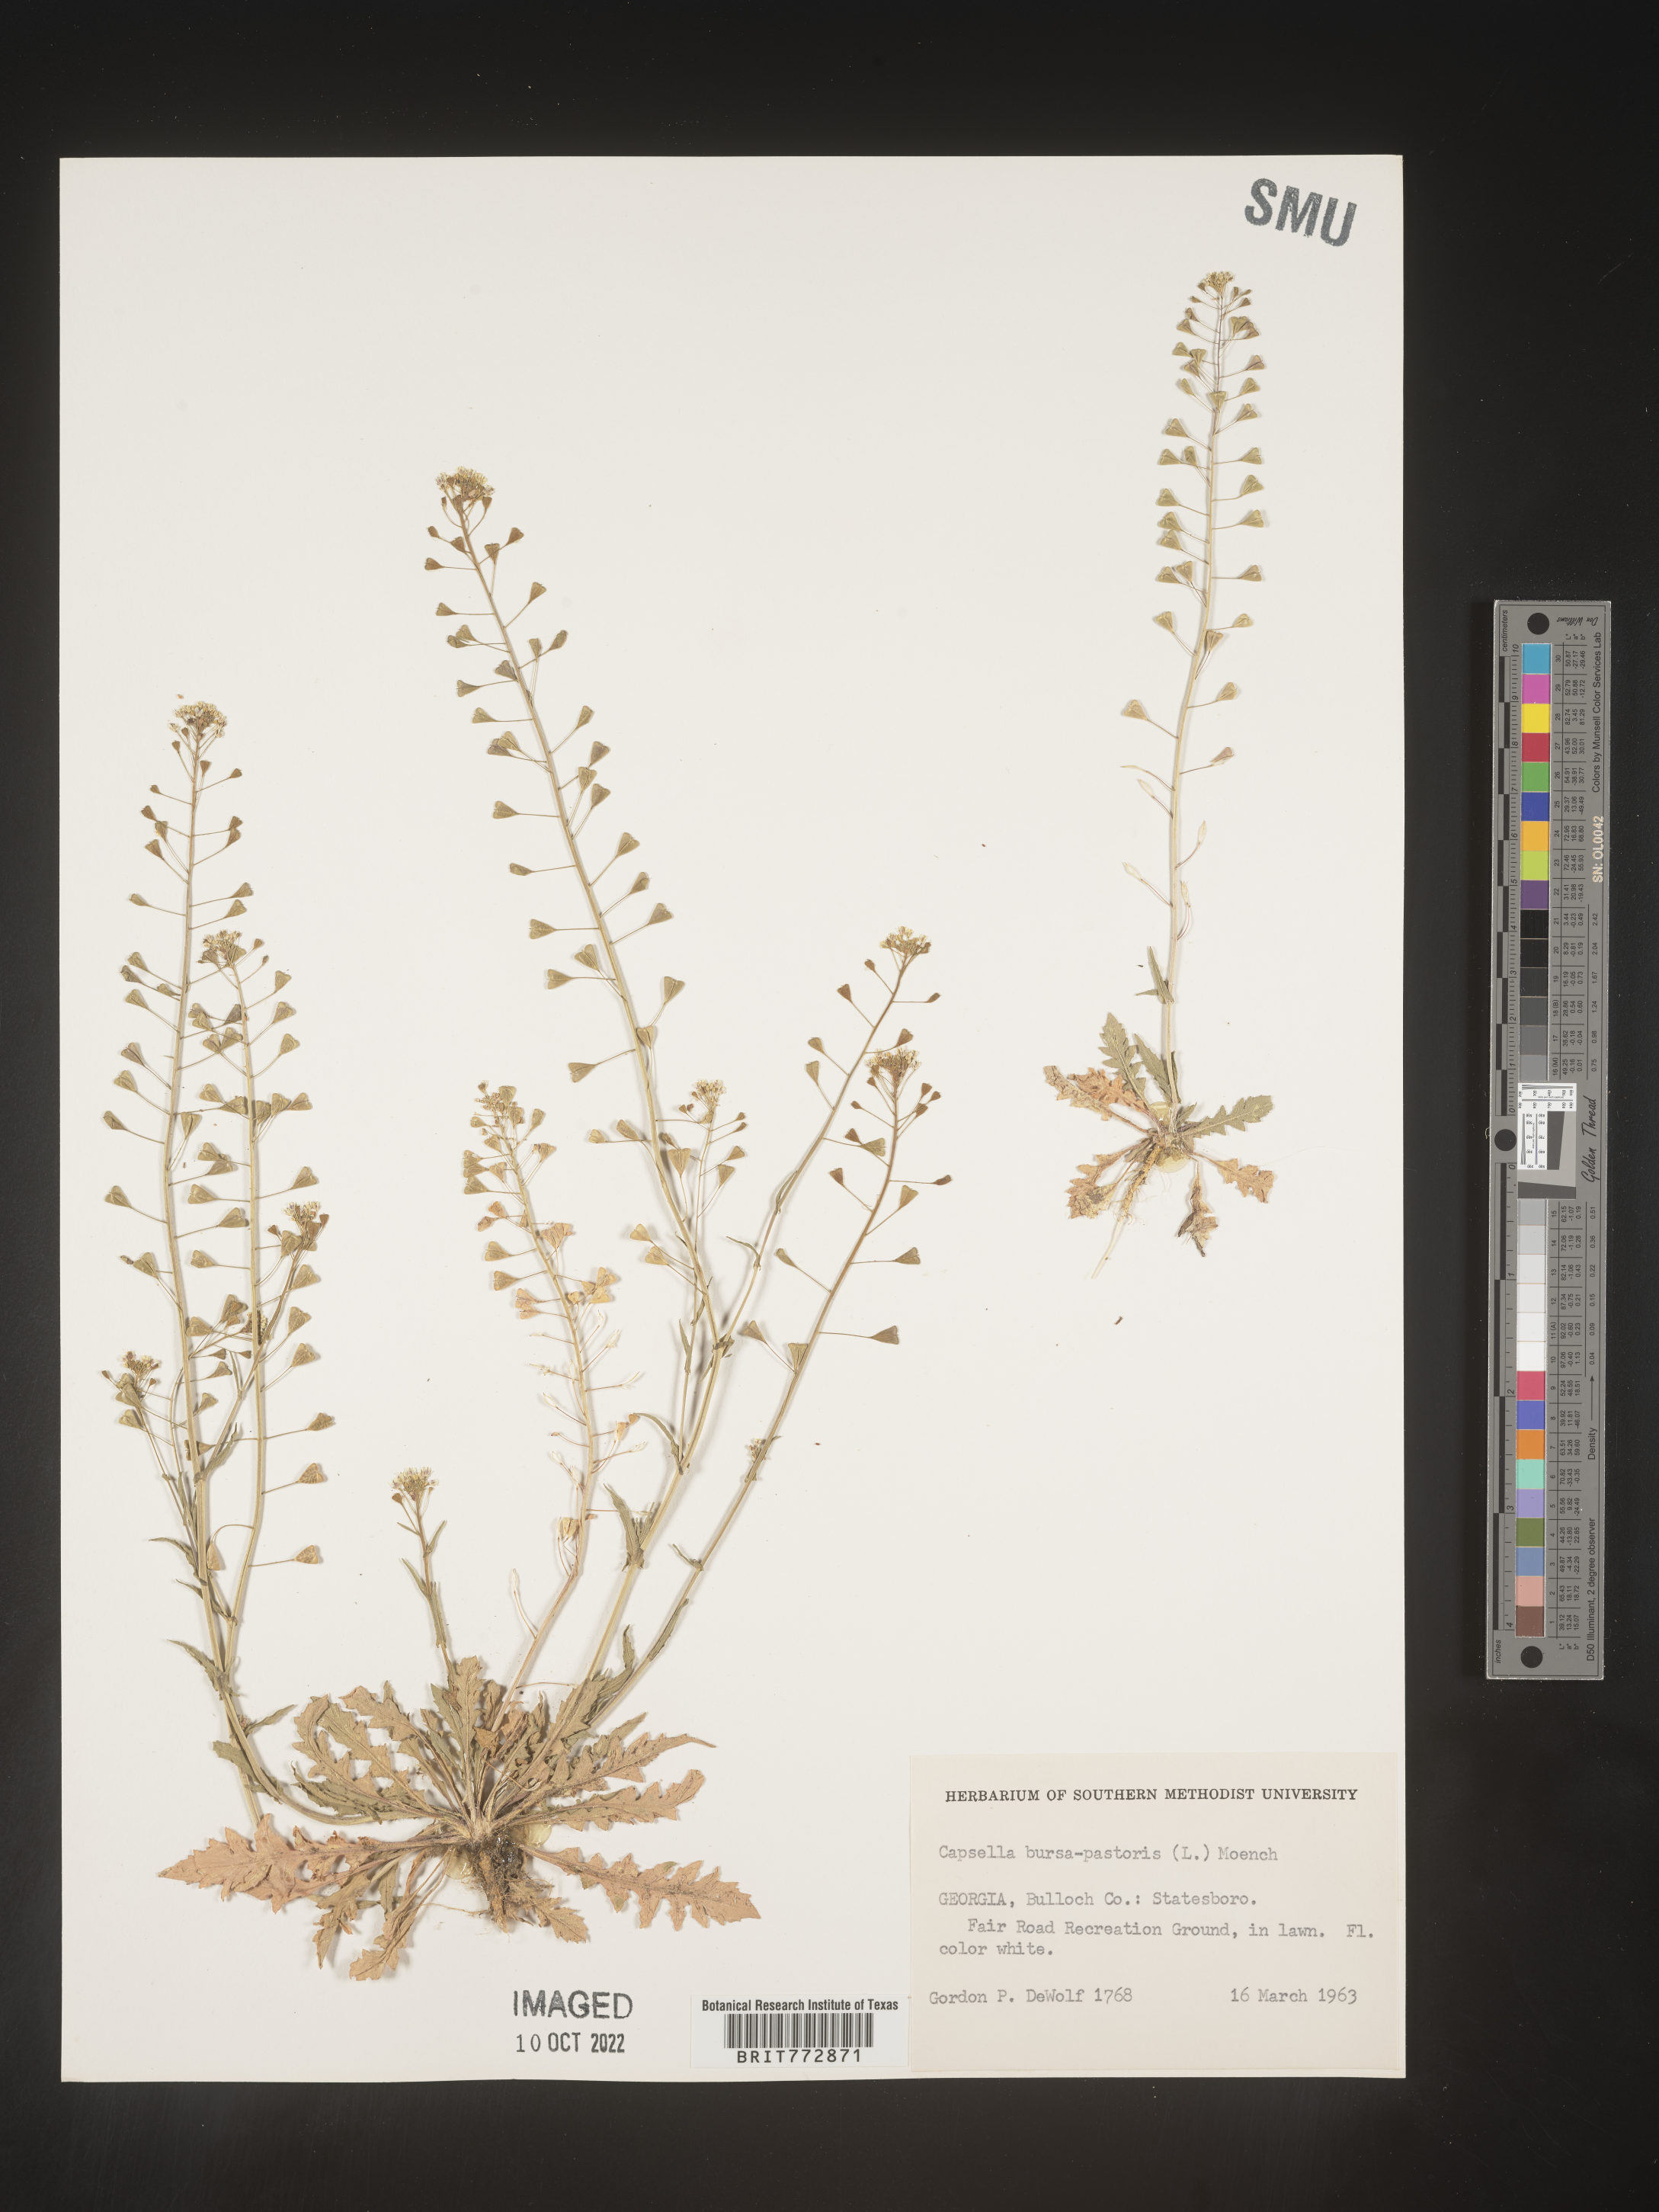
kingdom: Plantae
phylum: Tracheophyta
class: Magnoliopsida
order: Brassicales
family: Brassicaceae
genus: Capsella
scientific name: Capsella bursa-pastoris
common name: Shepherd's purse
